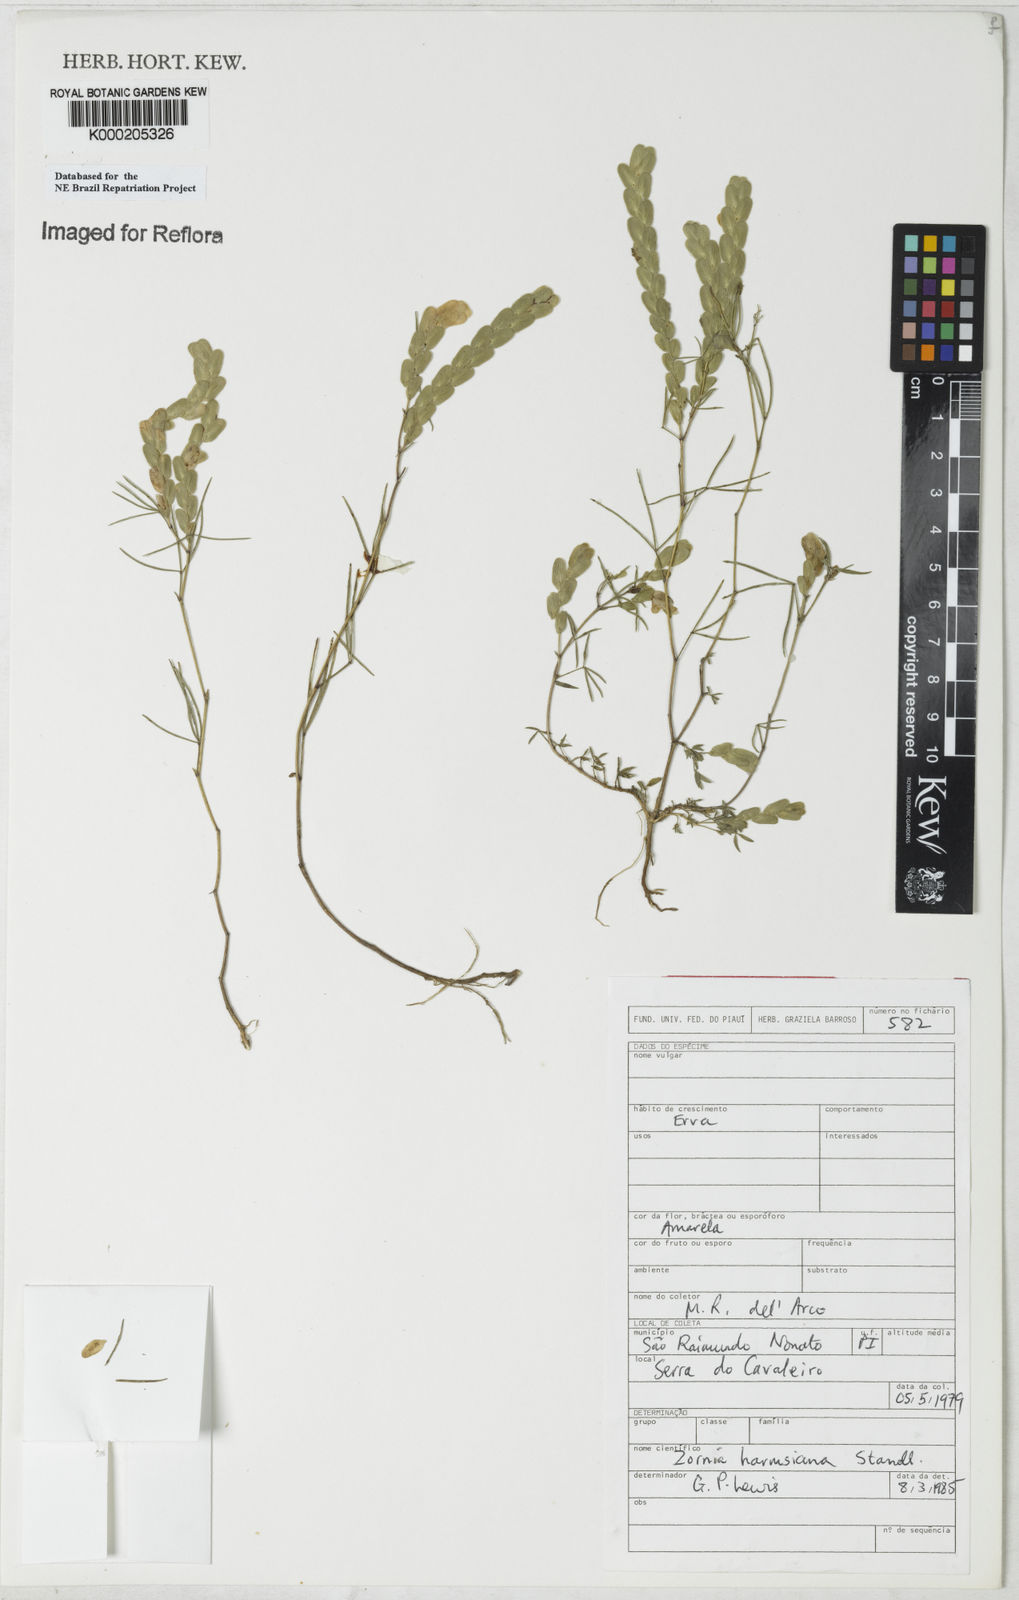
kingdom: Plantae
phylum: Tracheophyta
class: Magnoliopsida
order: Fabales
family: Fabaceae
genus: Zornia
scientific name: Zornia harmsiana
